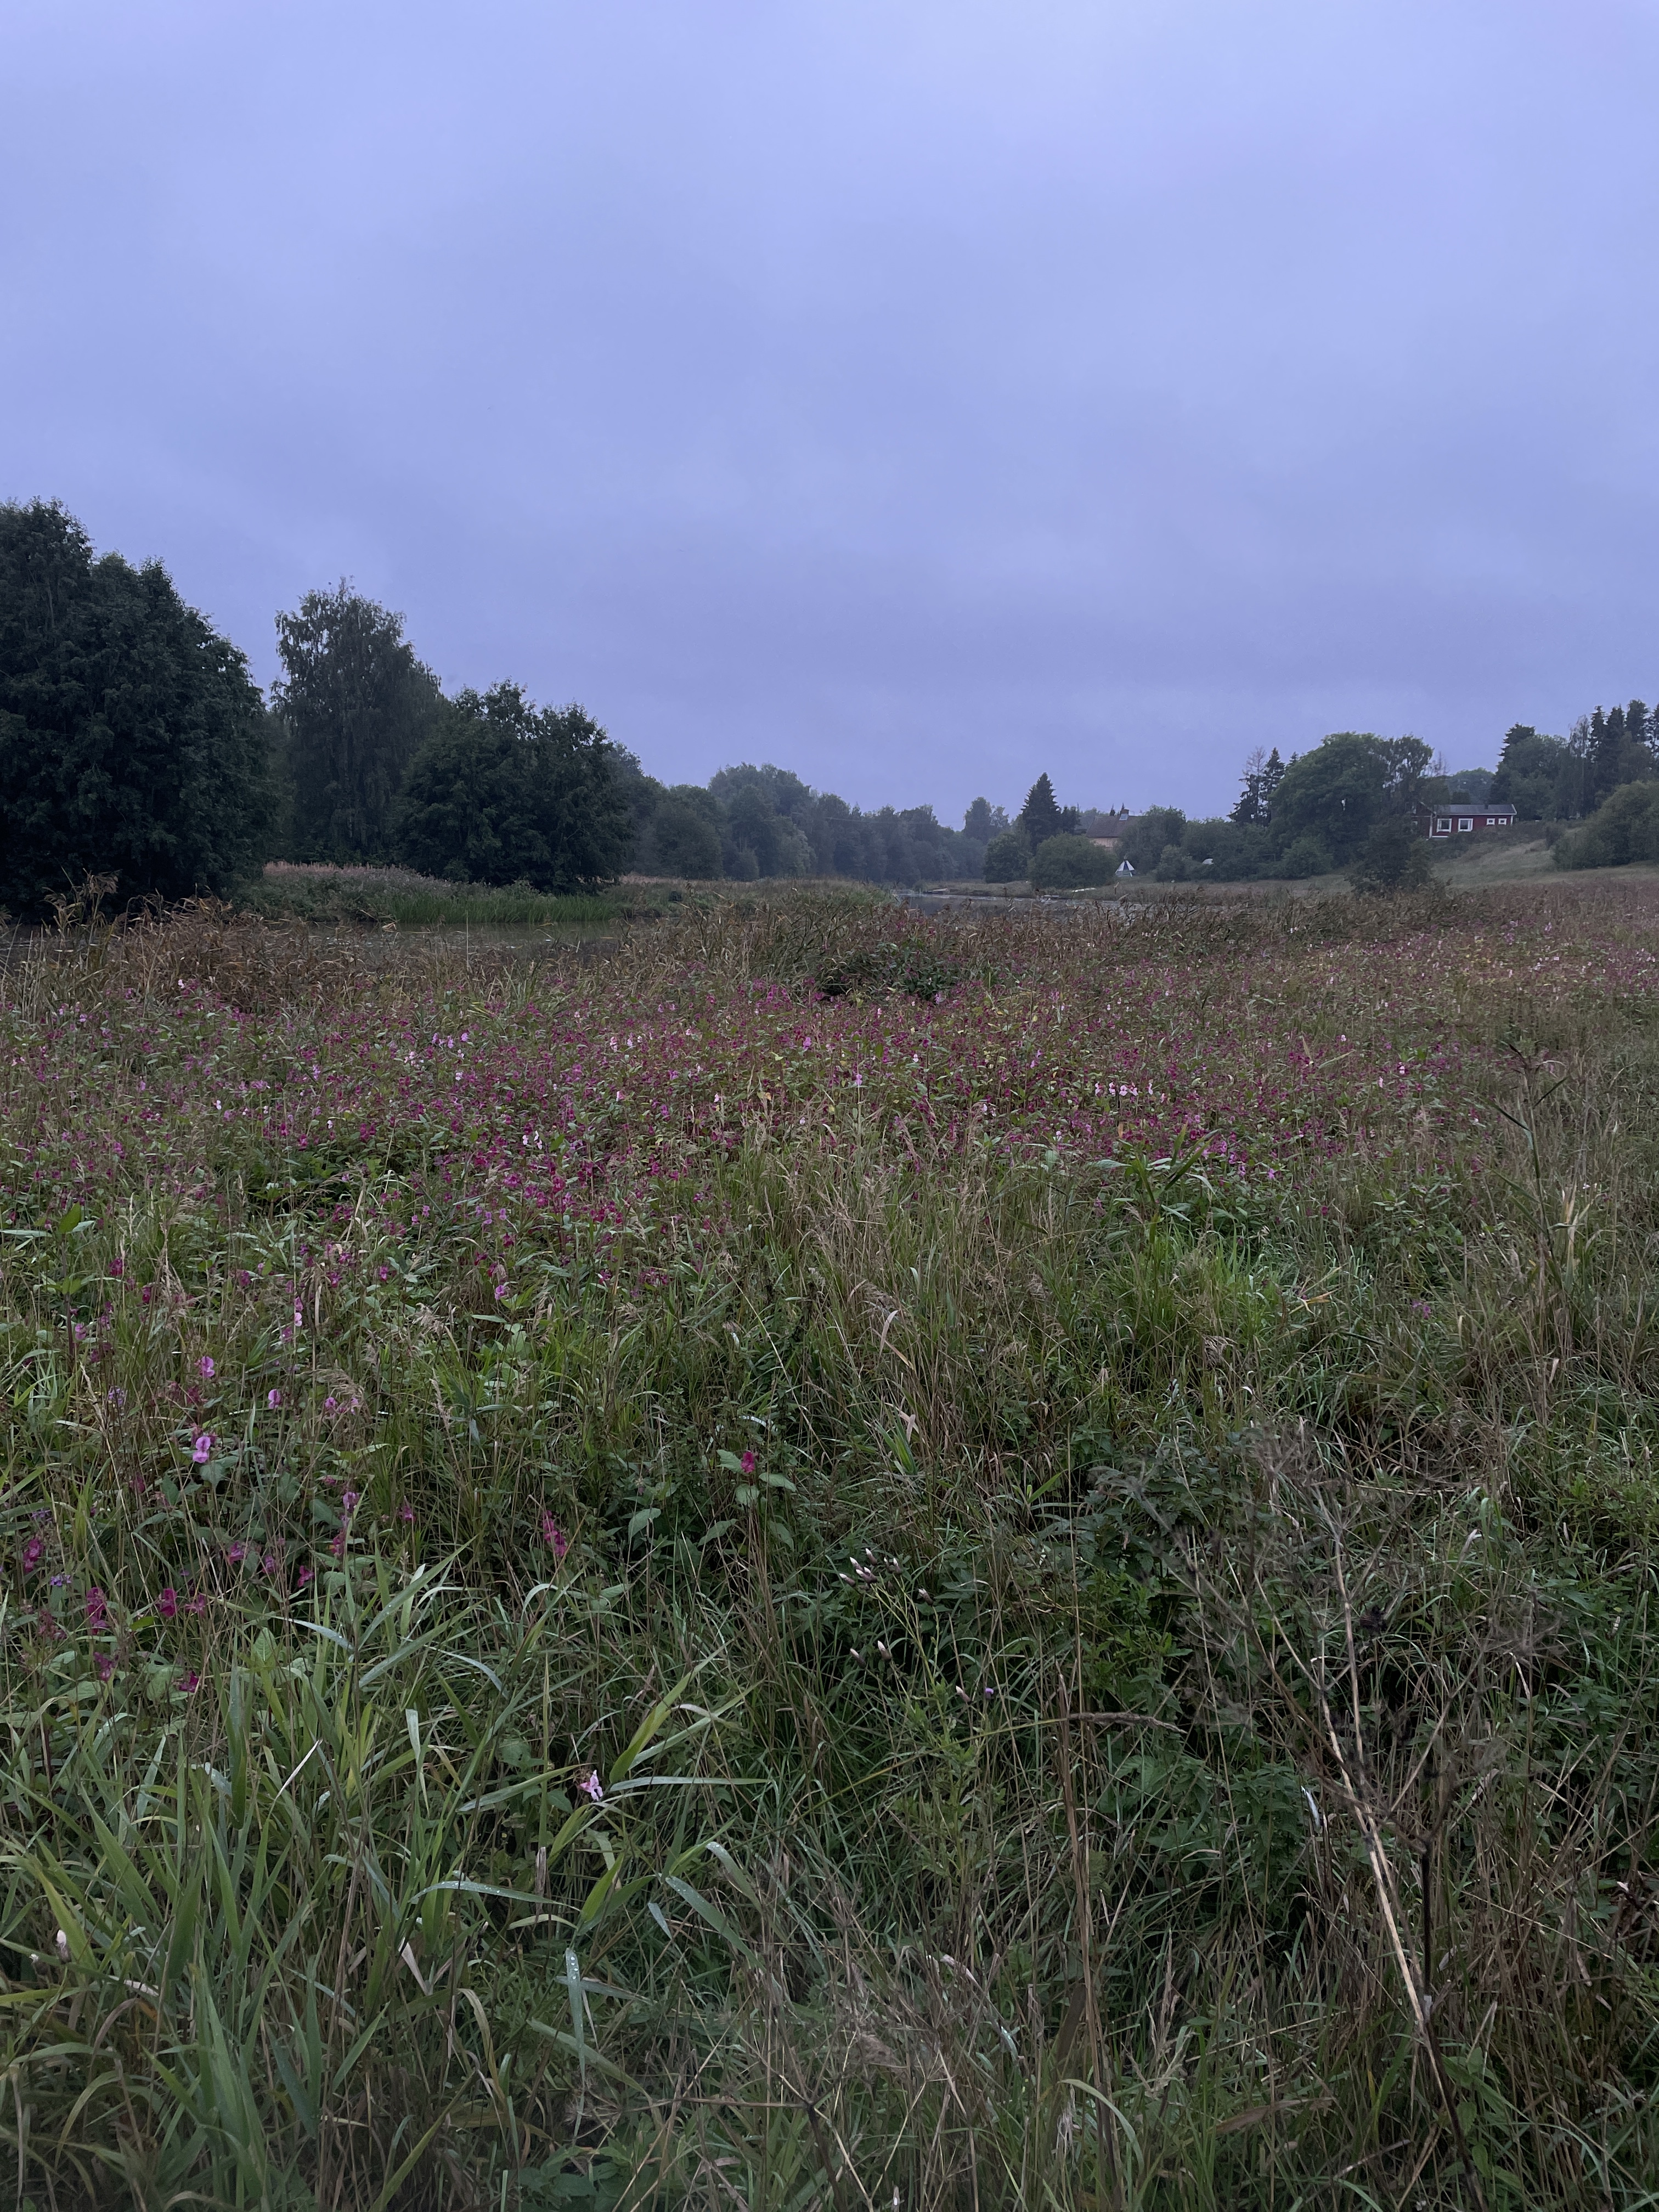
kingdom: Plantae
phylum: Tracheophyta
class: Magnoliopsida
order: Ericales
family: Balsaminaceae
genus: Impatiens
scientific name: Impatiens glandulifera
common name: Himalayan balsam
